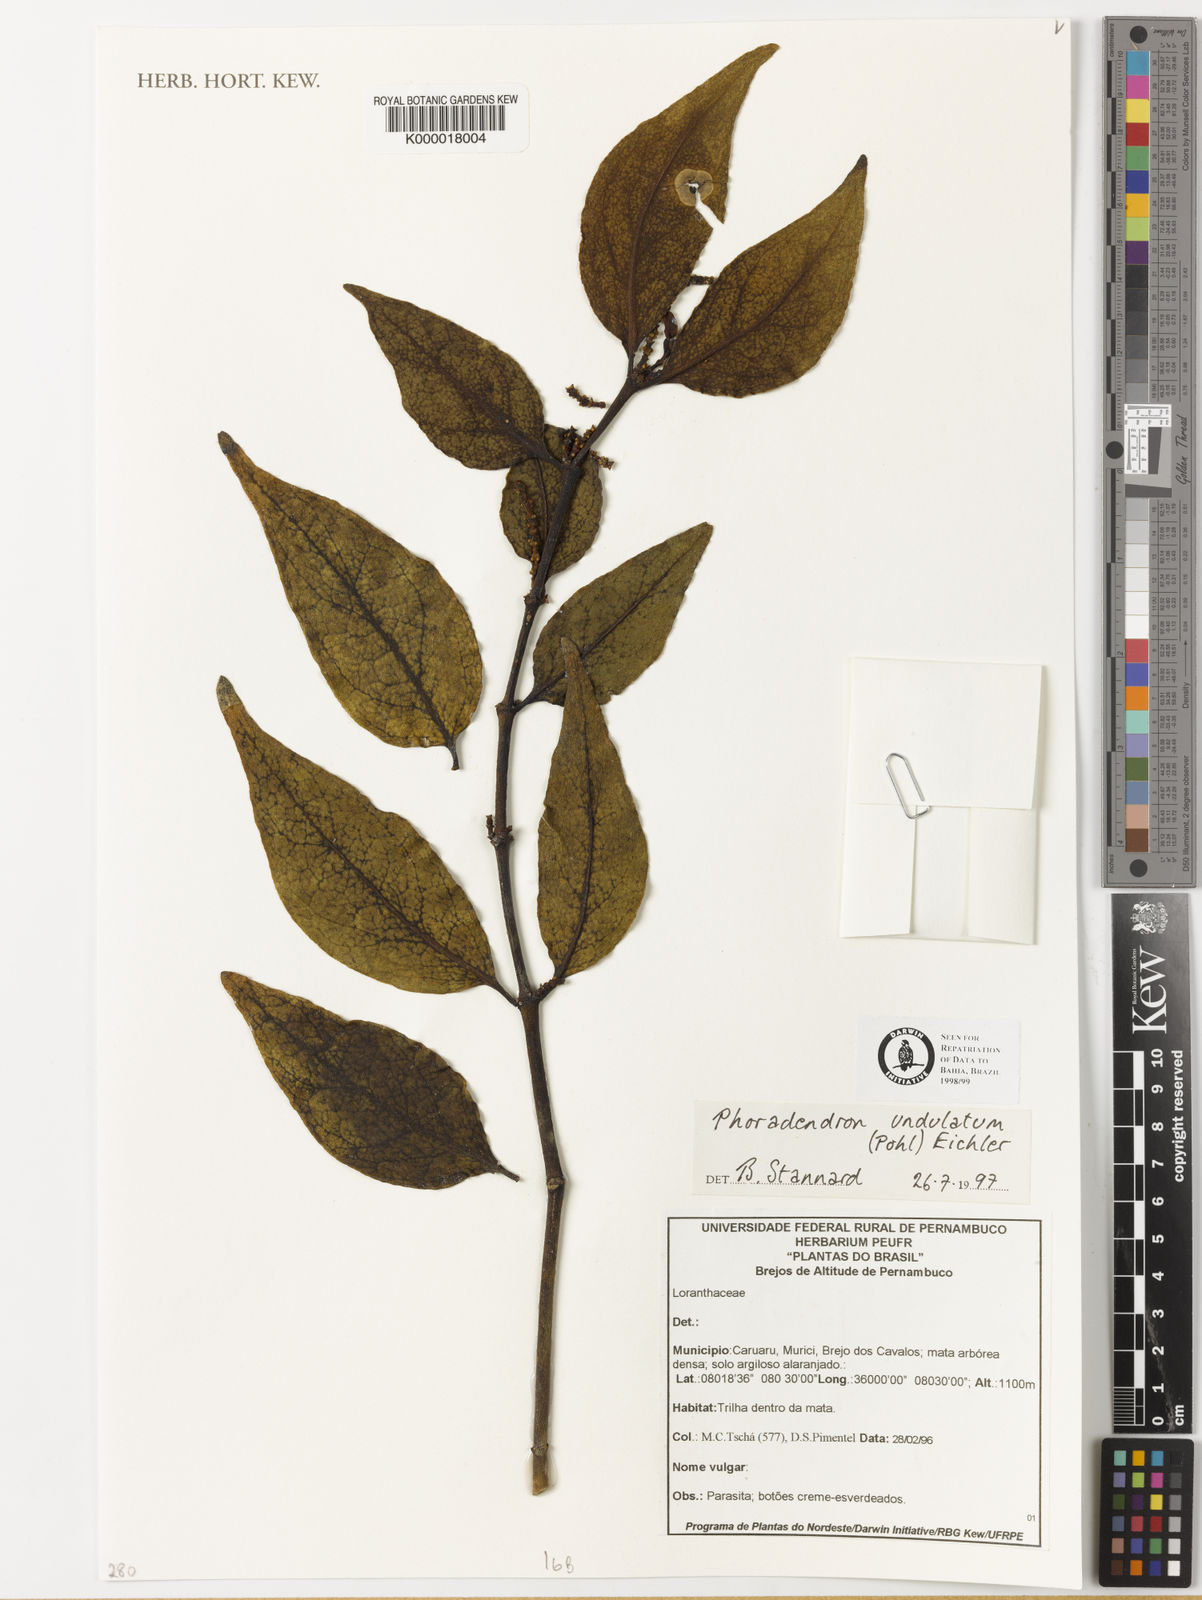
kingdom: Plantae
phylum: Tracheophyta
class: Magnoliopsida
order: Santalales
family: Viscaceae
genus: Phoradendron
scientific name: Phoradendron undulatum
